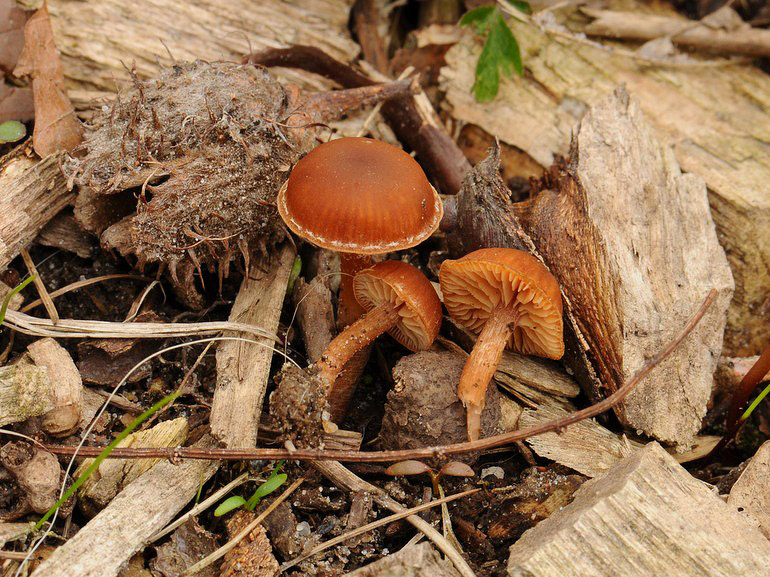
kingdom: Fungi
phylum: Basidiomycota
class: Agaricomycetes
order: Agaricales
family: Tubariaceae
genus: Tubaria
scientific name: Tubaria furfuracea
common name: kliddet fnughat
